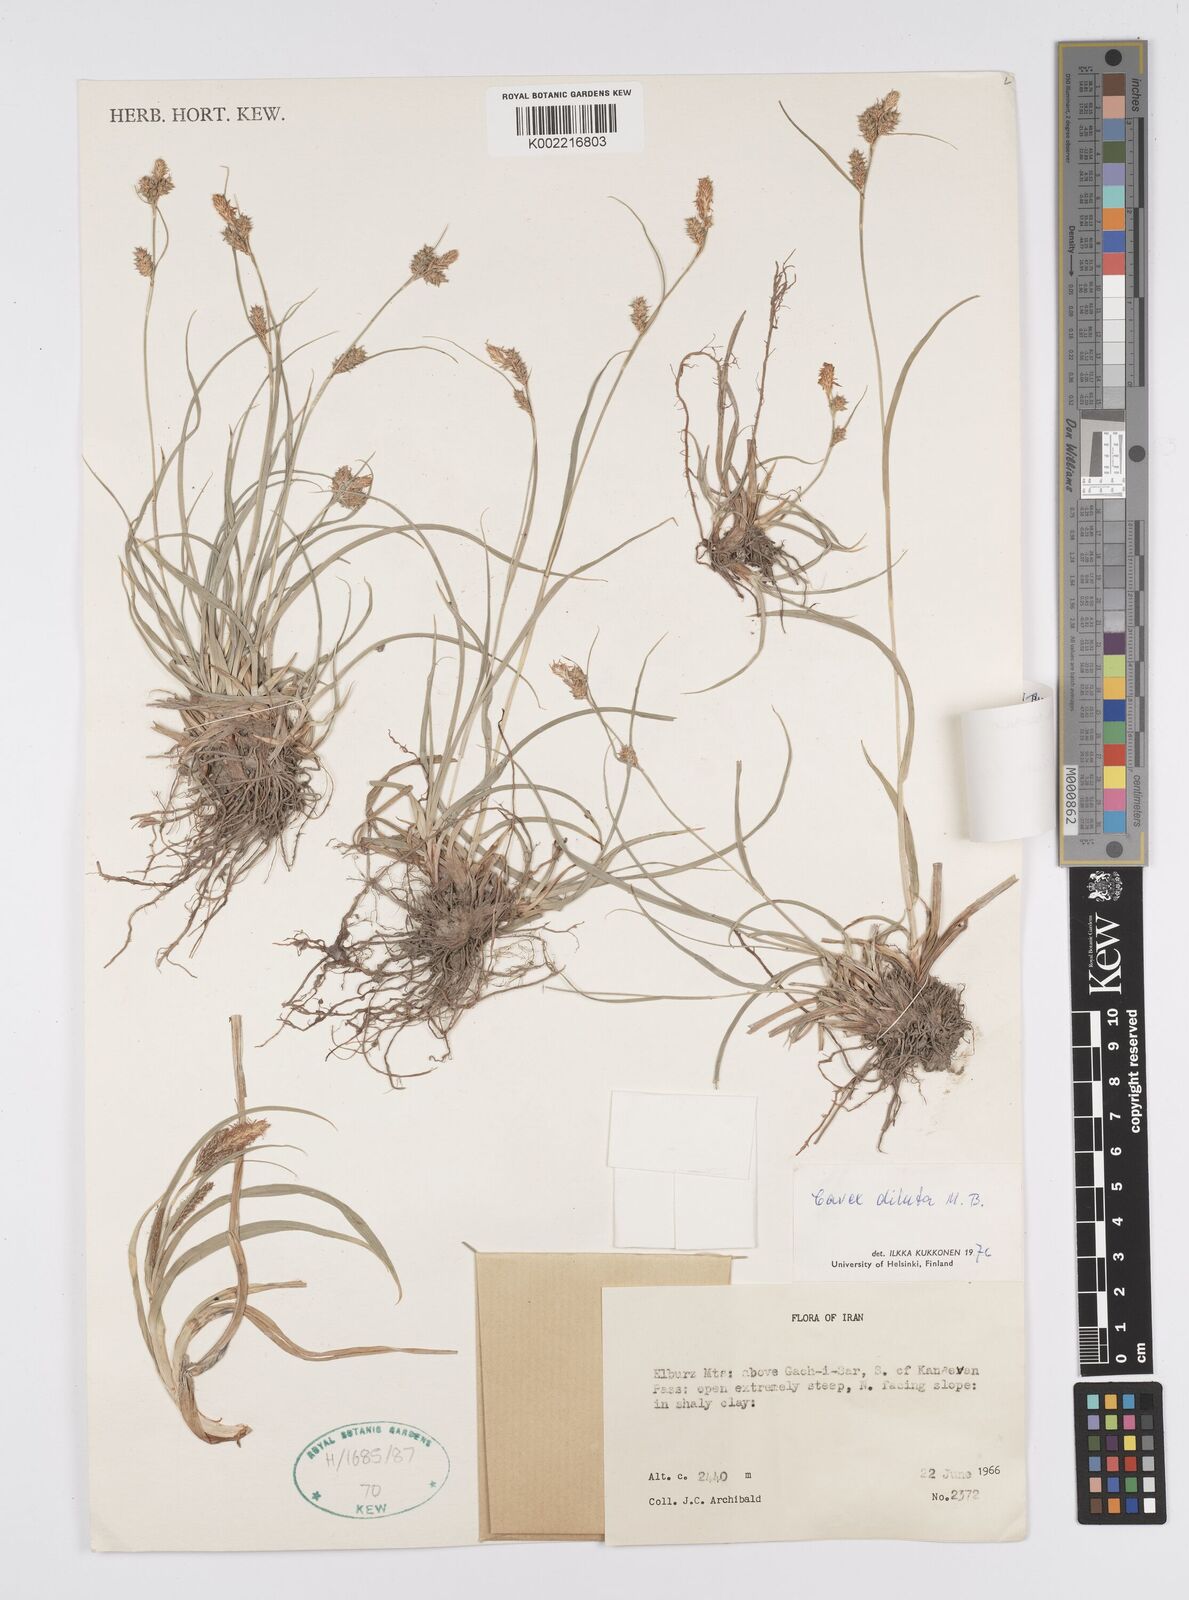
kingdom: Plantae
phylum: Tracheophyta
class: Liliopsida
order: Poales
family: Cyperaceae
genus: Carex
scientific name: Carex diluta
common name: Sedge
